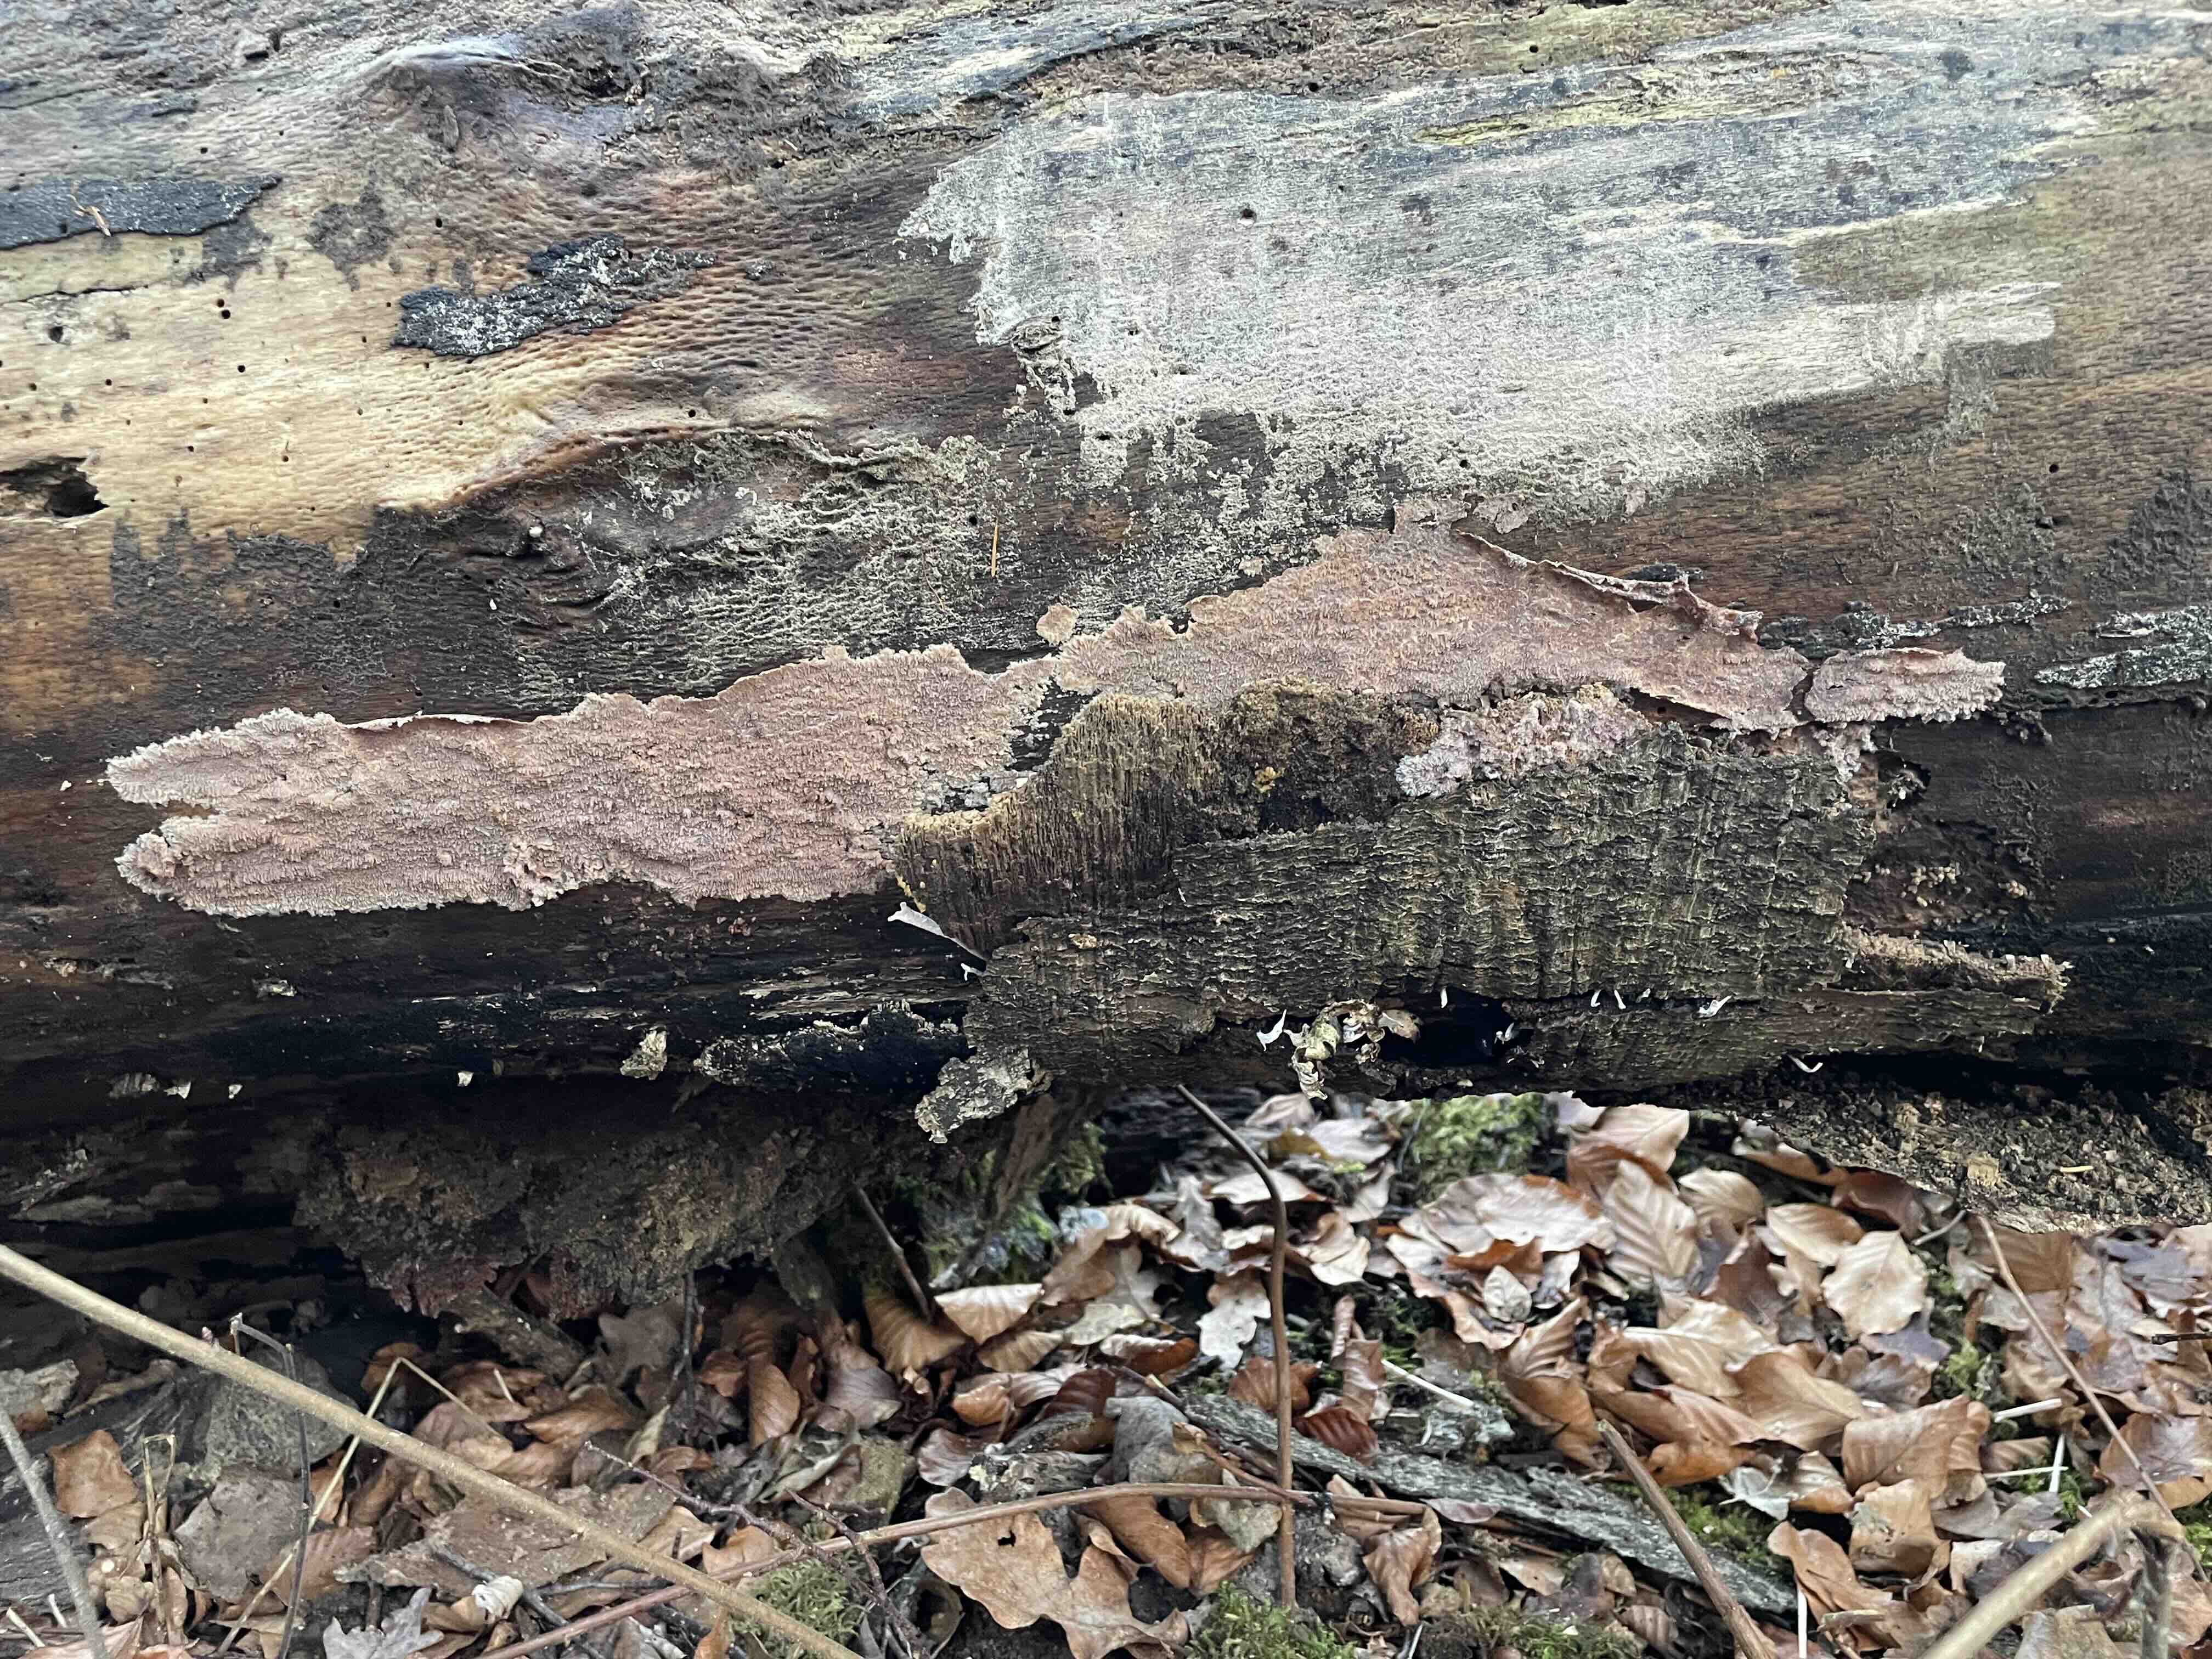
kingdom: Fungi
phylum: Basidiomycota
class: Agaricomycetes
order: Polyporales
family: Meruliaceae
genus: Phlebia
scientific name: Phlebia rufa
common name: ege-åresvamp
